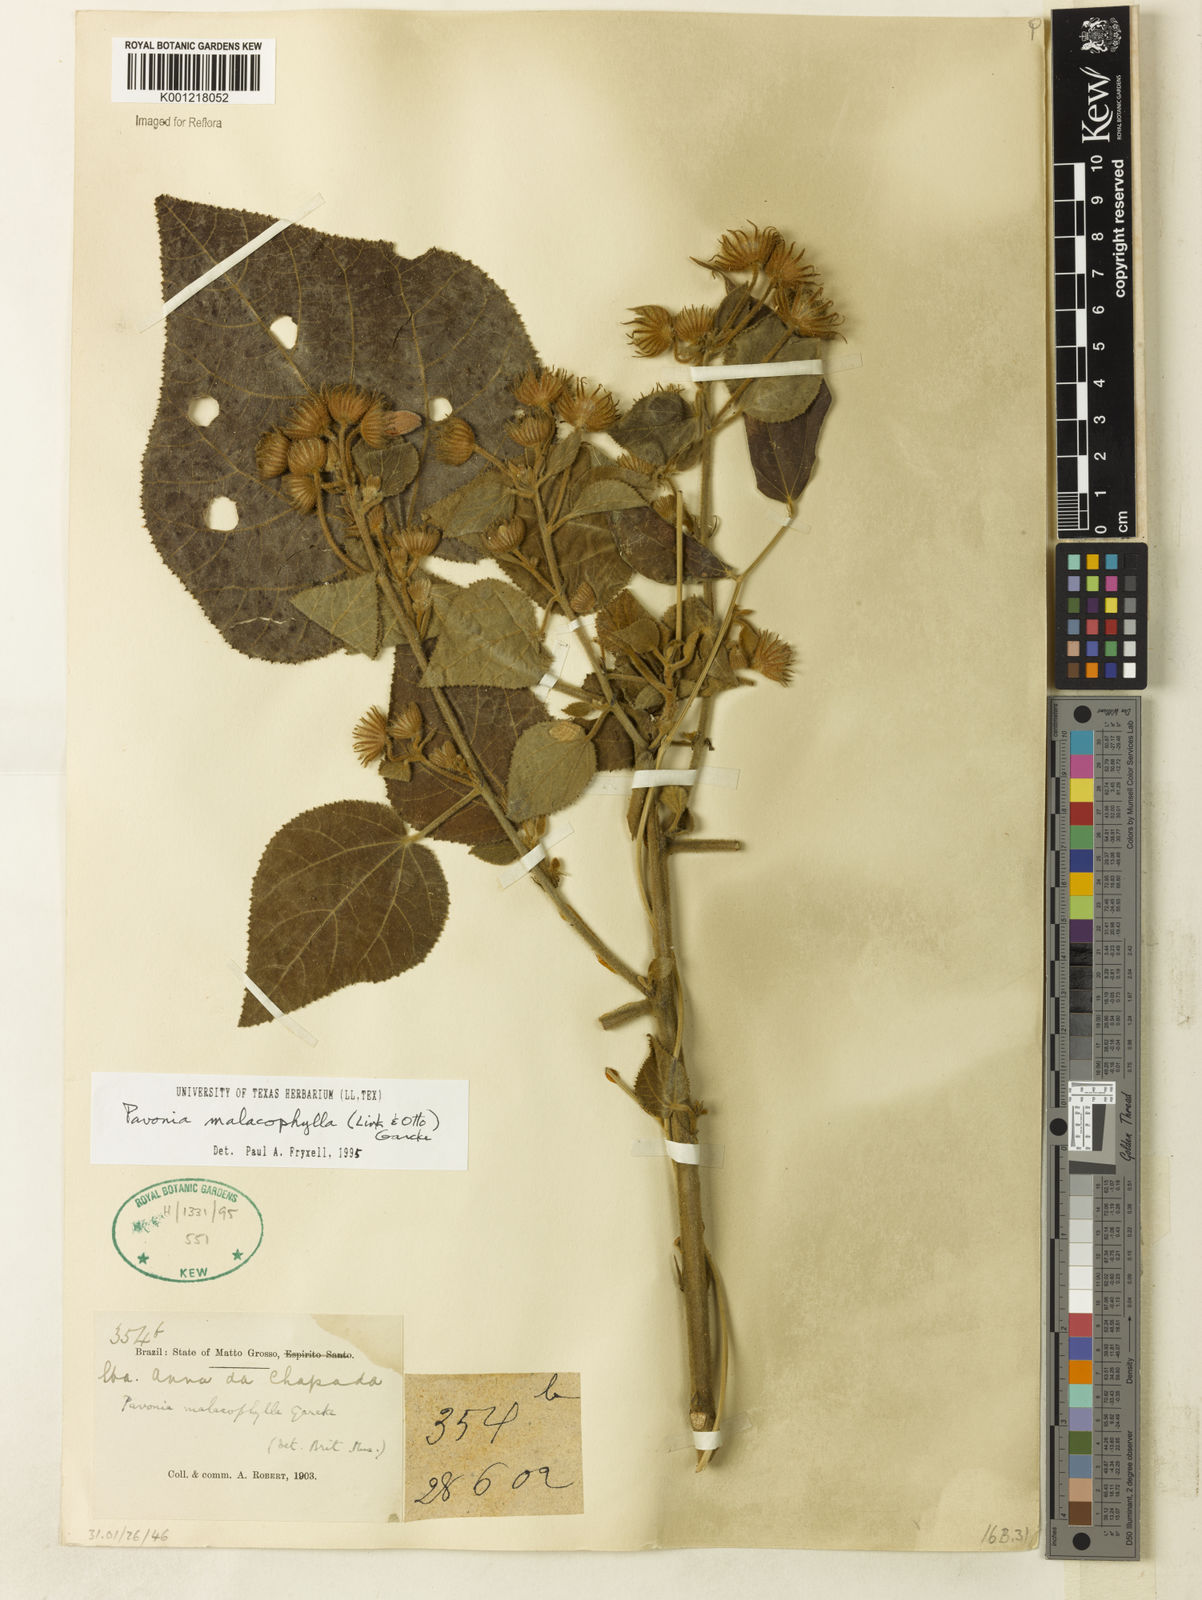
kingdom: Plantae
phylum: Tracheophyta
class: Magnoliopsida
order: Malvales
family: Malvaceae
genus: Pavonia
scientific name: Pavonia malacophylla
